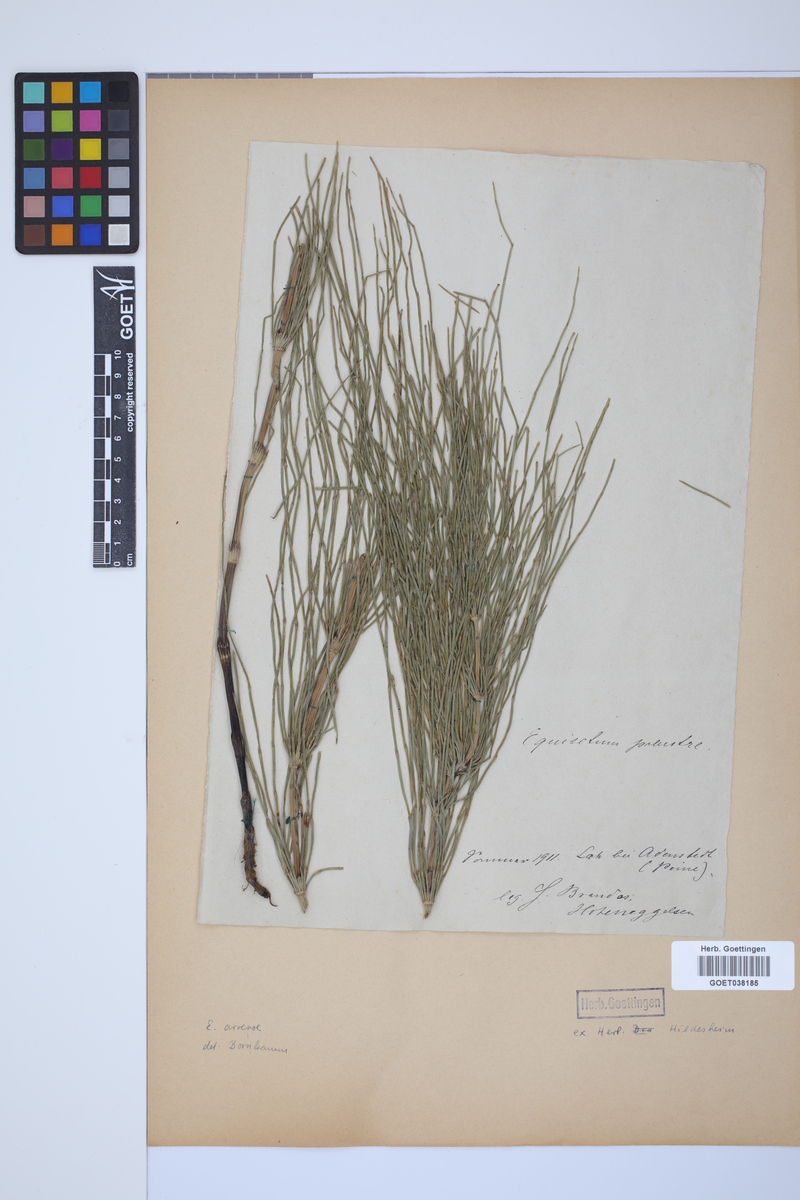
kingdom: Plantae
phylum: Tracheophyta
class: Polypodiopsida
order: Equisetales
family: Equisetaceae
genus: Equisetum
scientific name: Equisetum arvense
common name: Field horsetail
